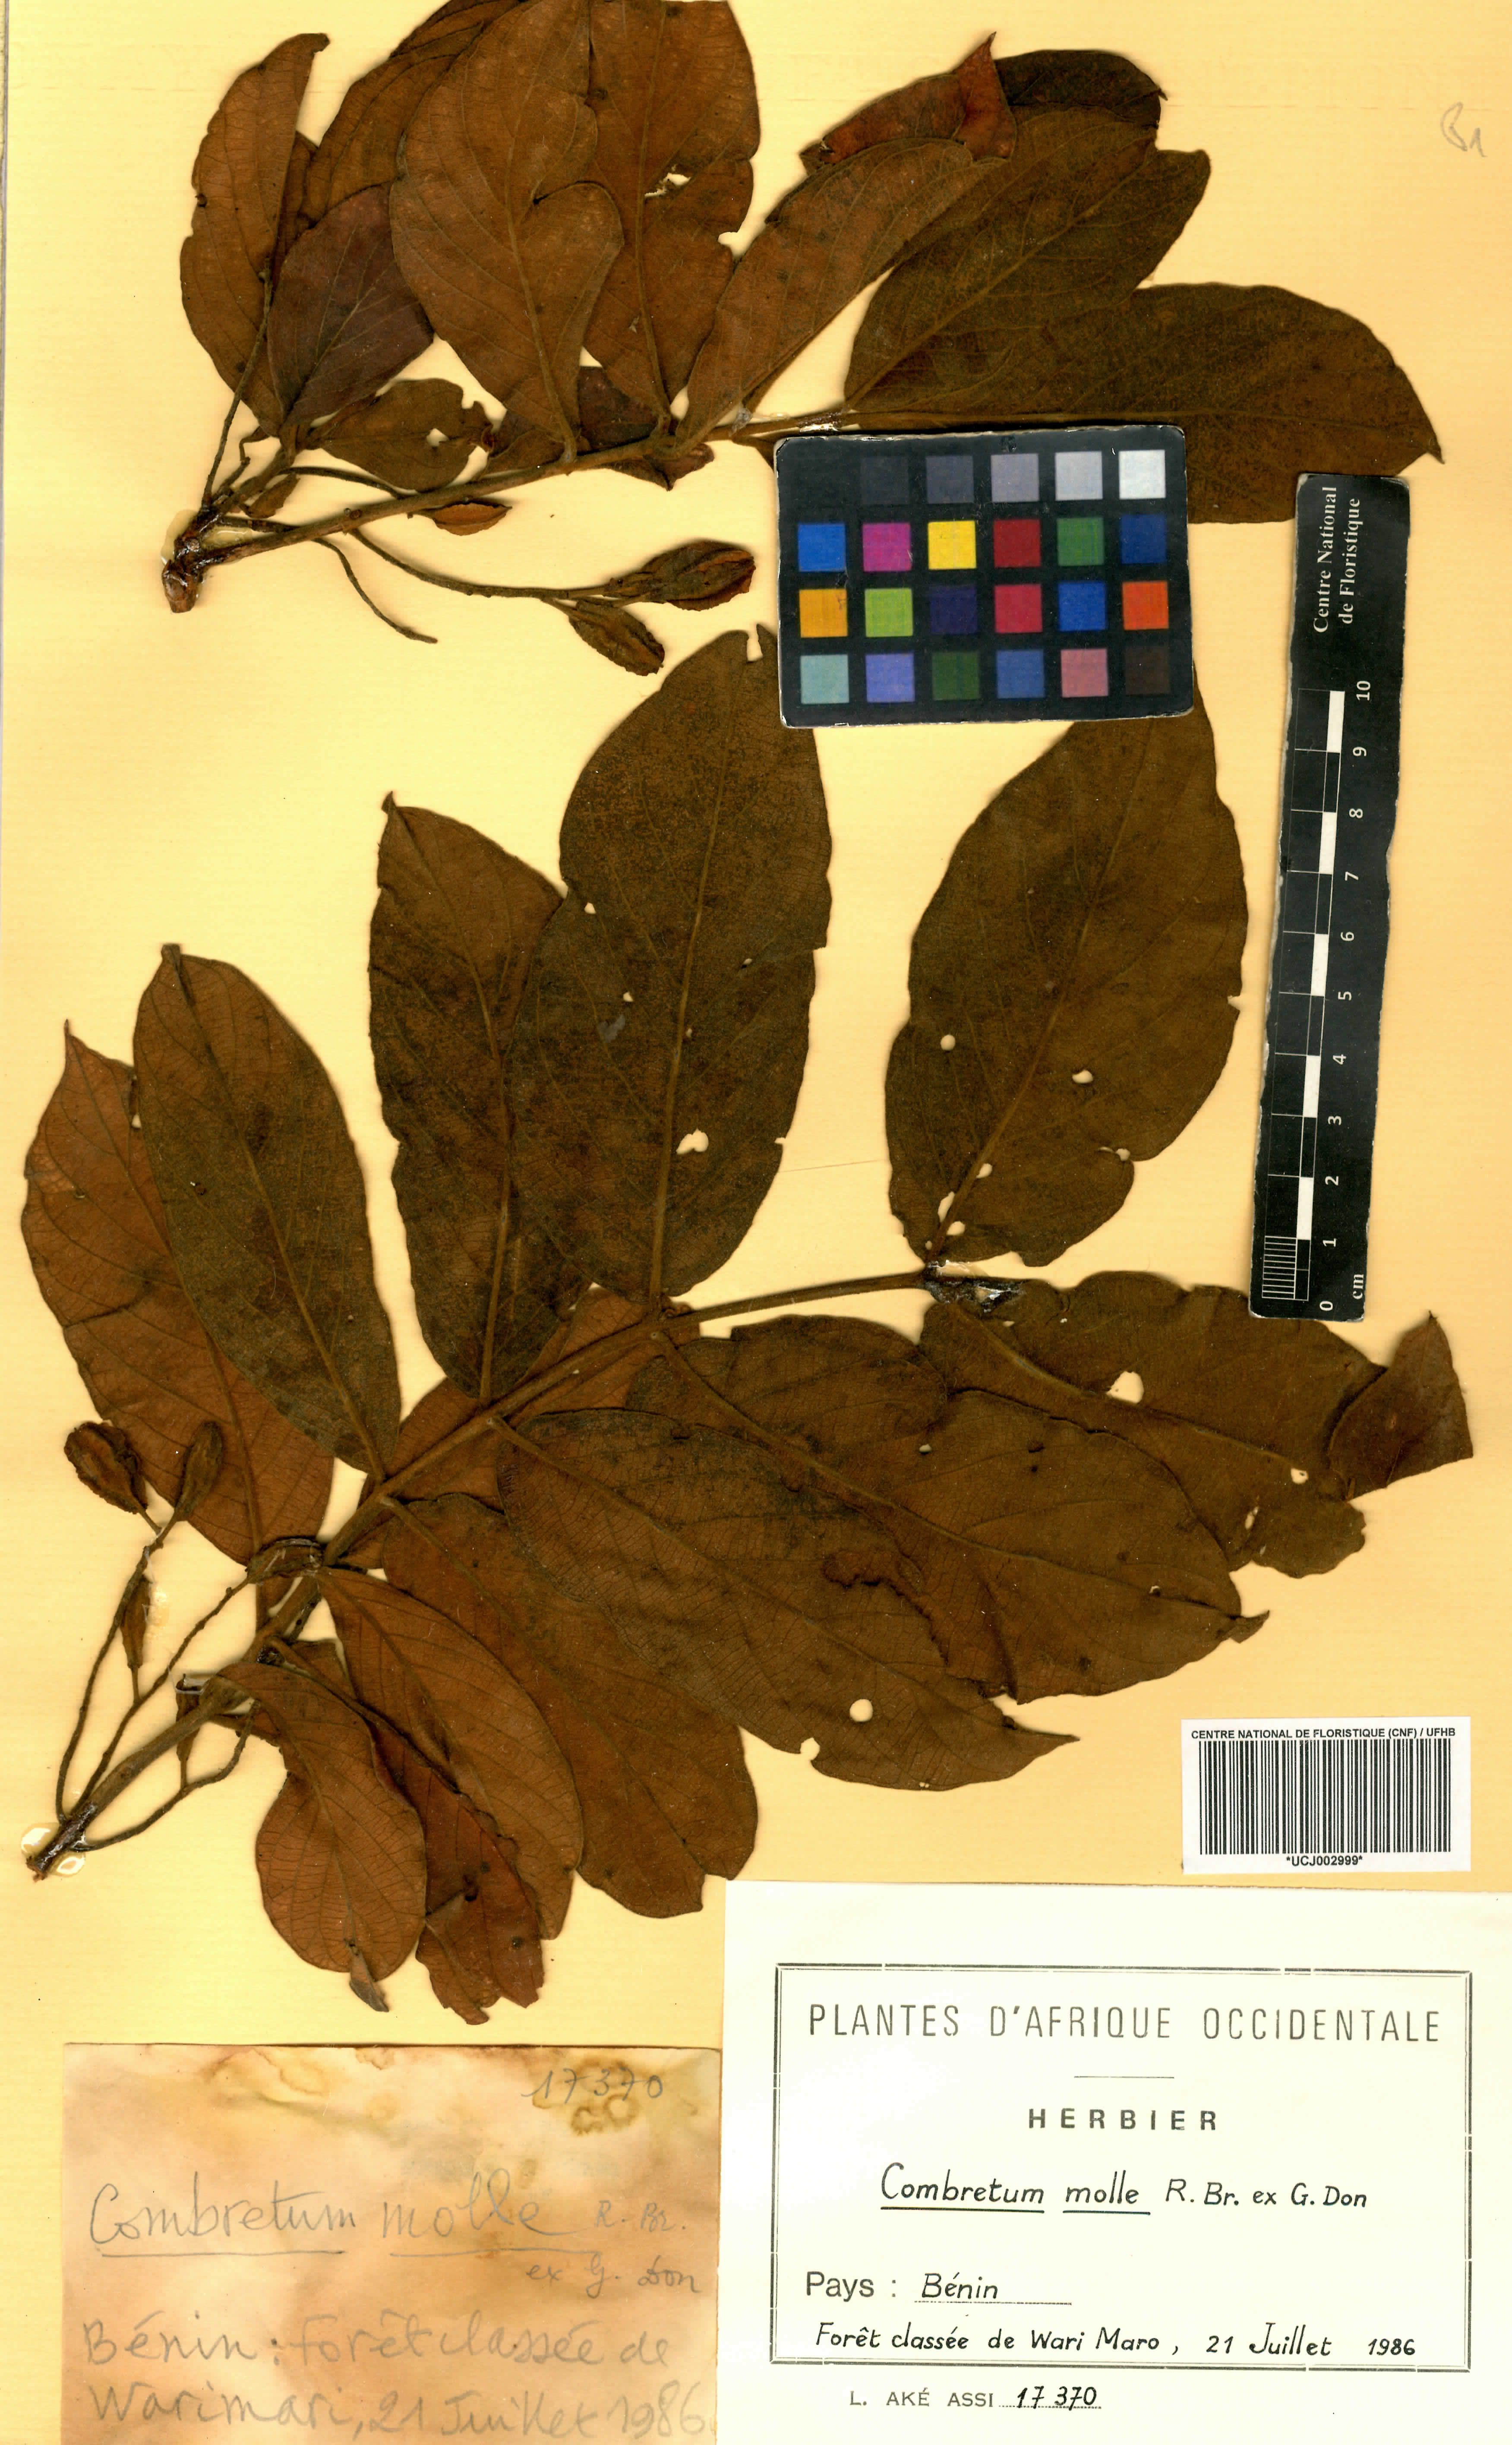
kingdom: Plantae
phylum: Tracheophyta
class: Magnoliopsida
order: Myrtales
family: Combretaceae
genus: Combretum
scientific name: Combretum molle
